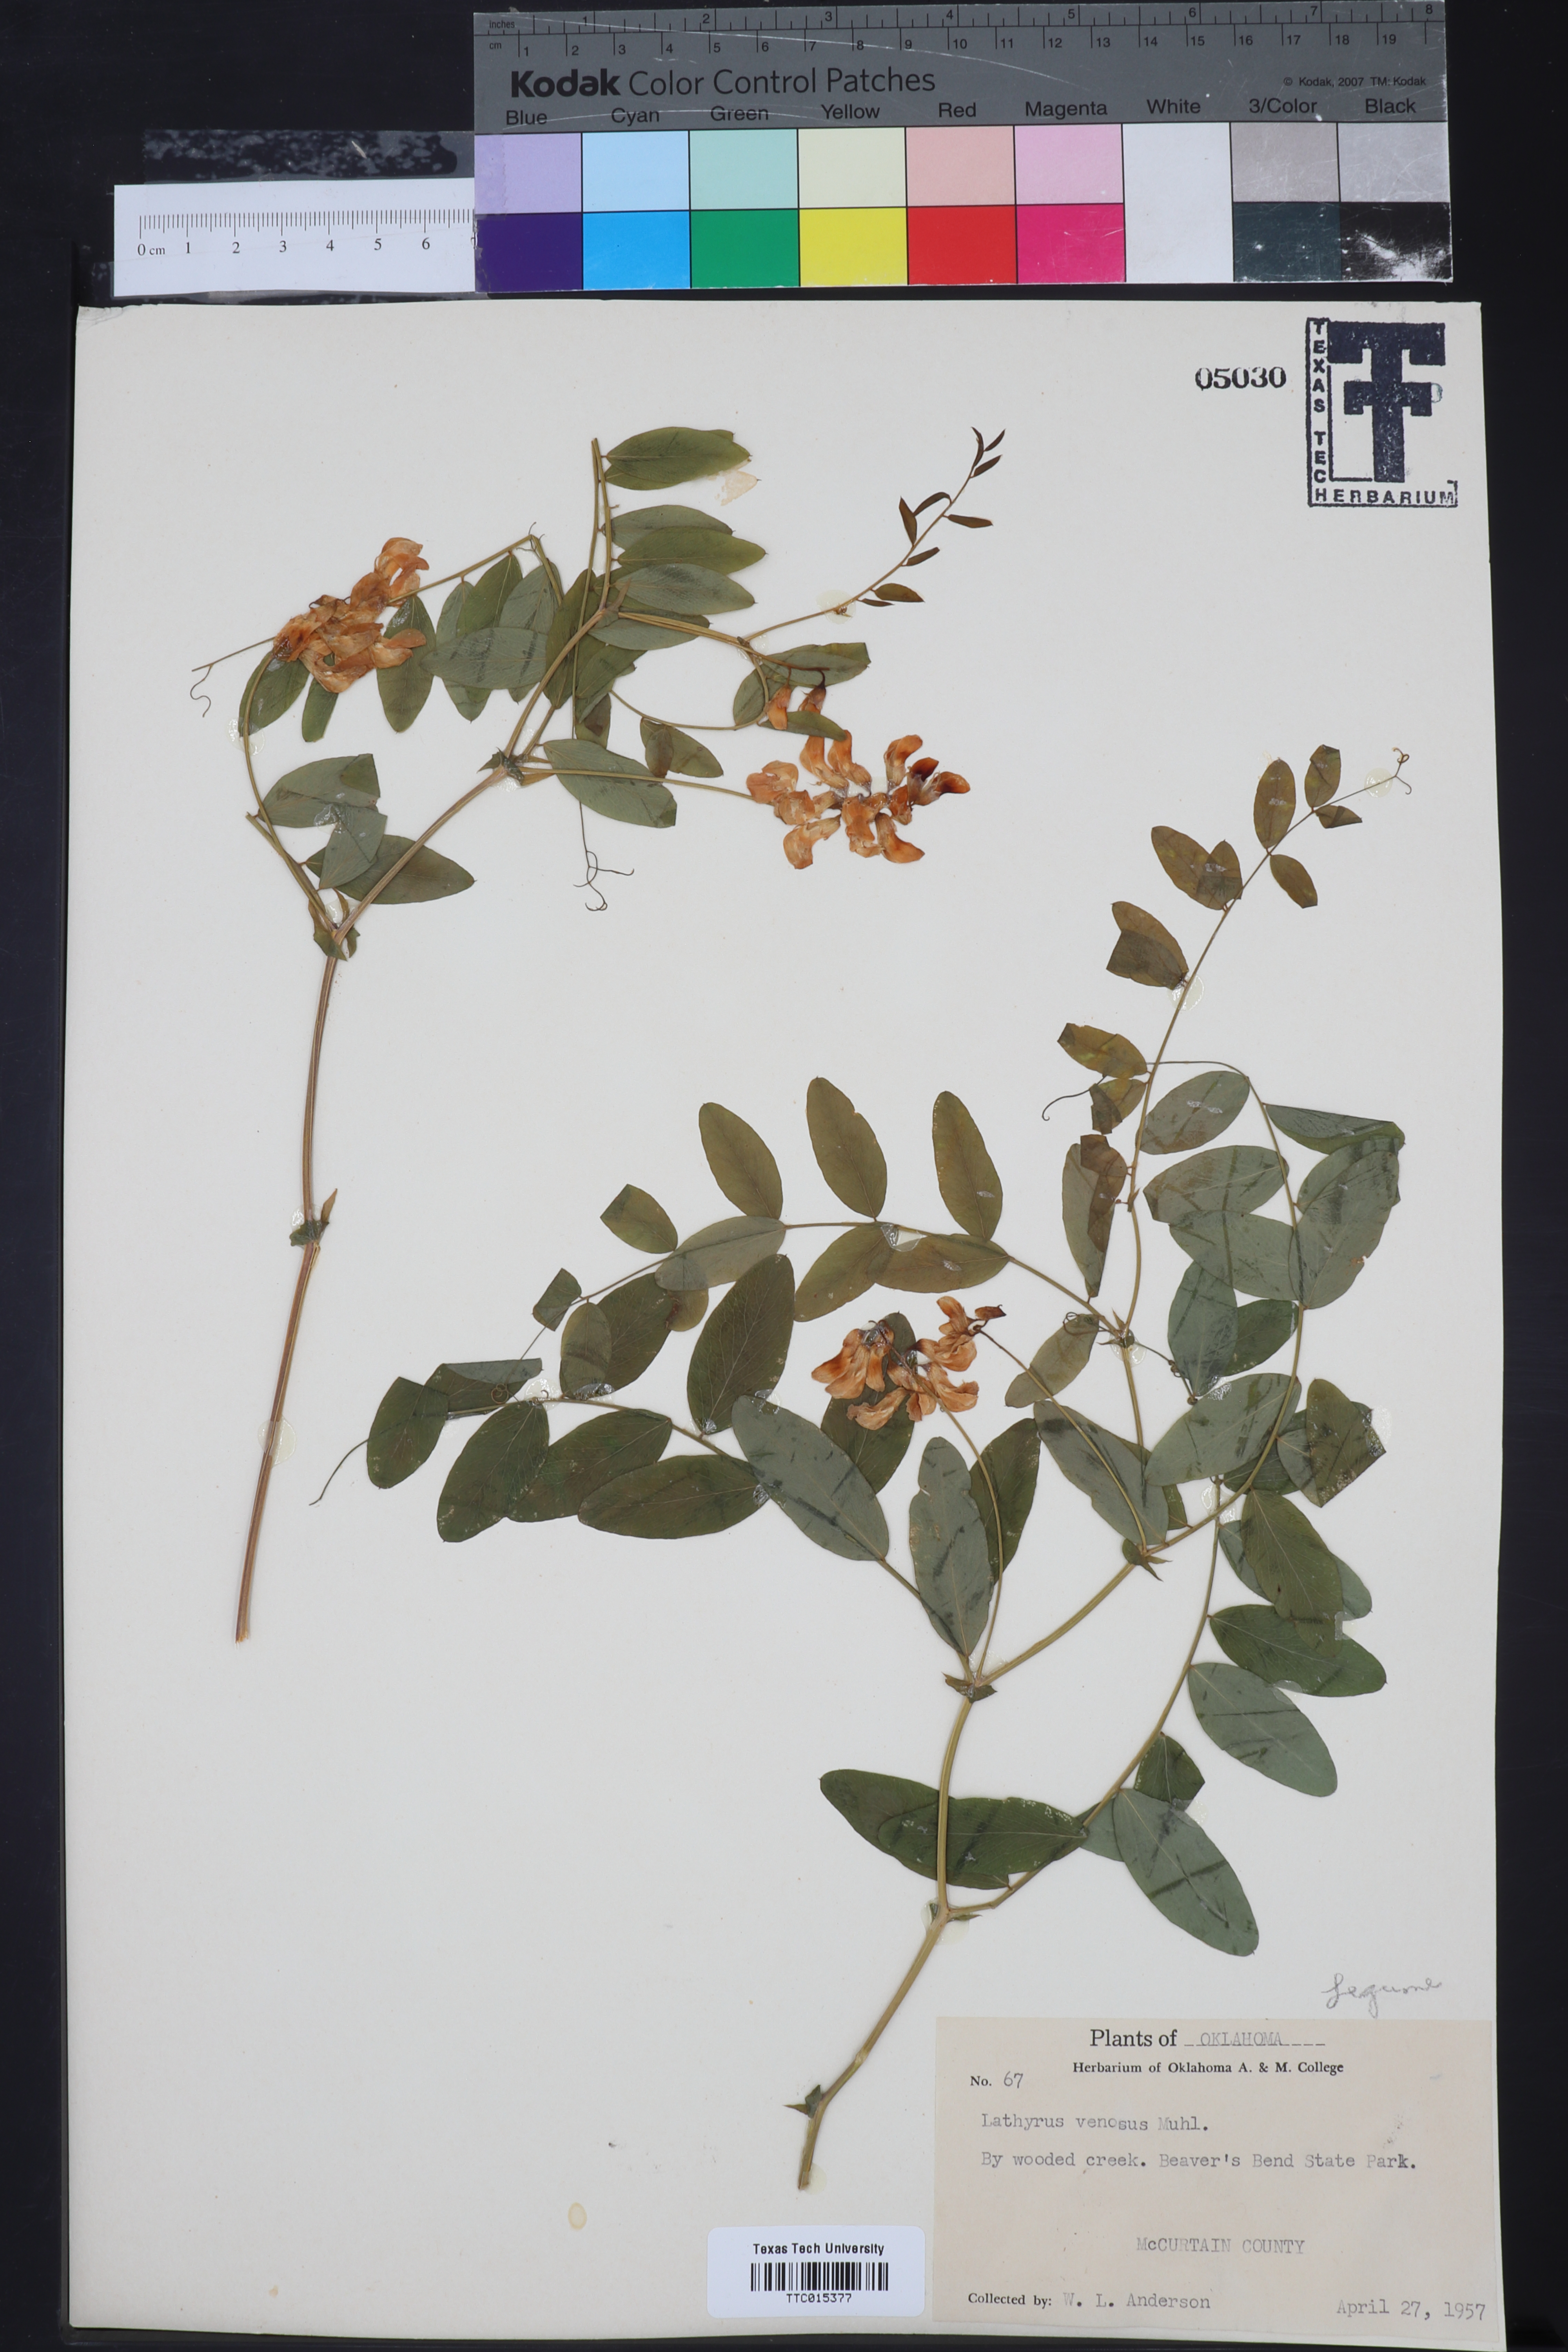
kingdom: Plantae
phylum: Tracheophyta
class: Magnoliopsida
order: Fabales
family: Fabaceae
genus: Lathyrus
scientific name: Lathyrus venosus
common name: Forest-pea
